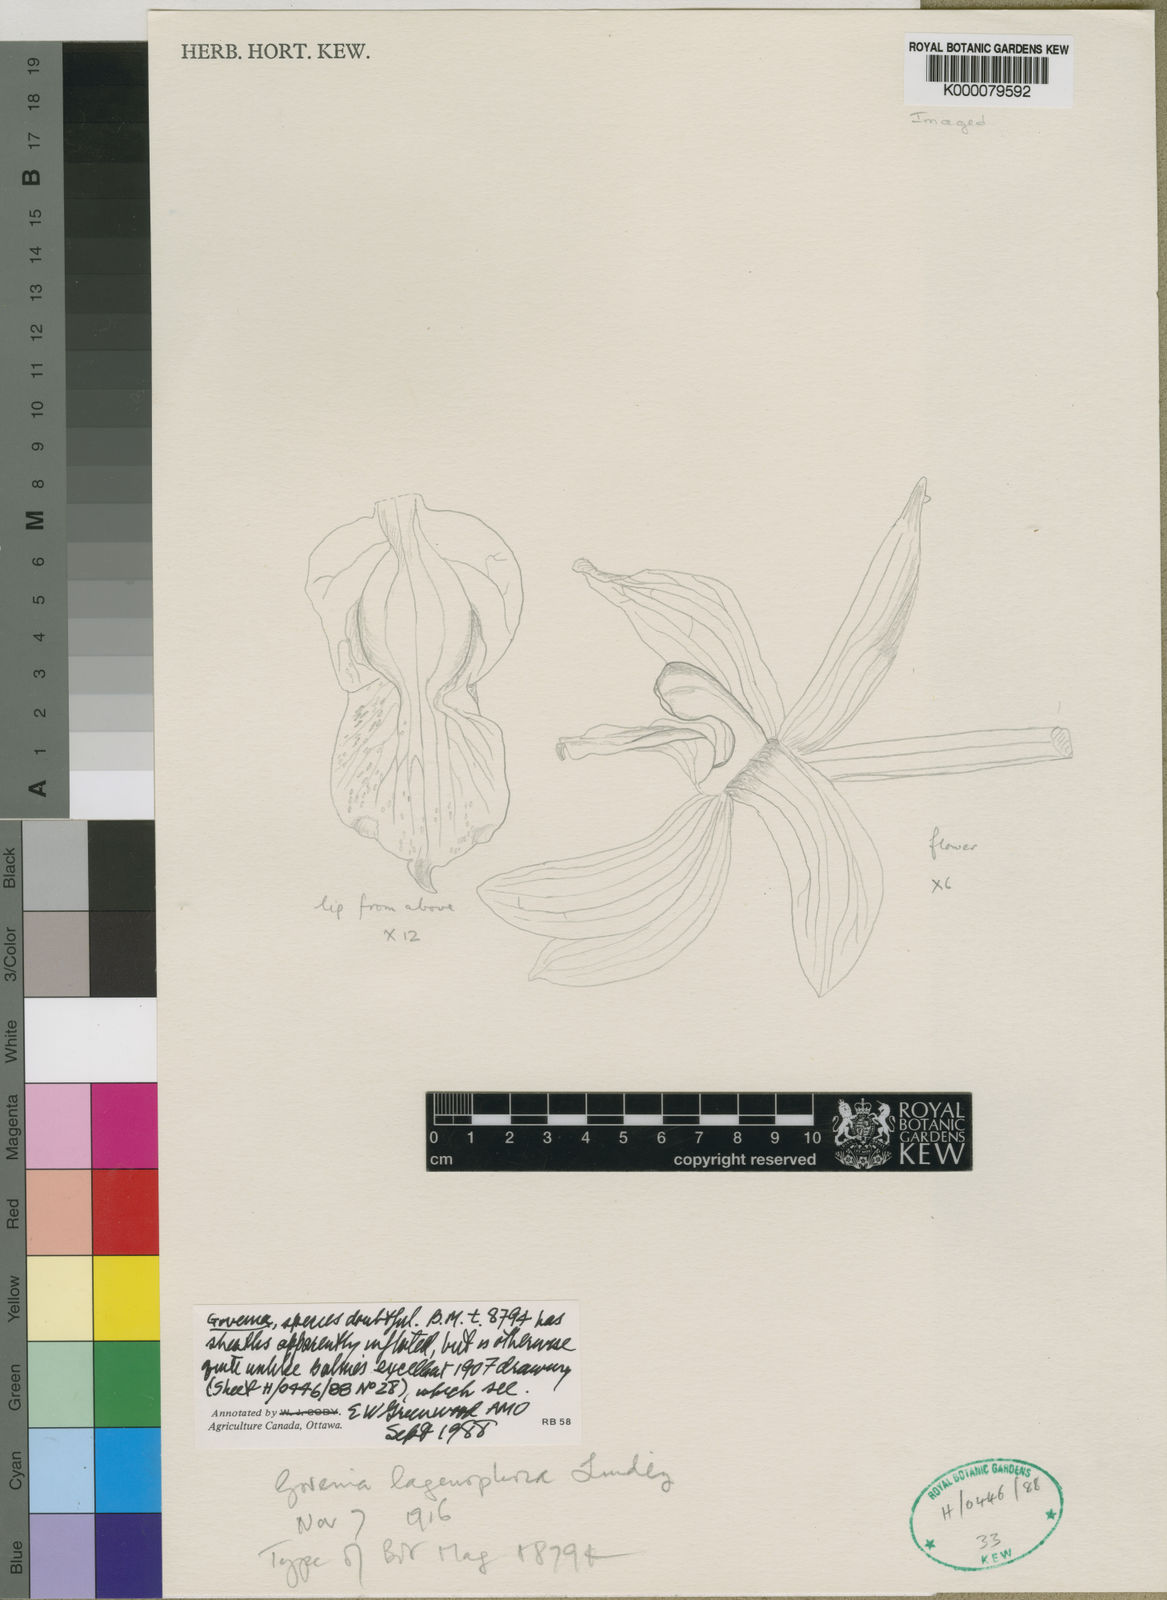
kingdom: Plantae
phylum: Tracheophyta
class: Liliopsida
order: Asparagales
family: Orchidaceae
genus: Govenia
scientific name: Govenia lagenophora
